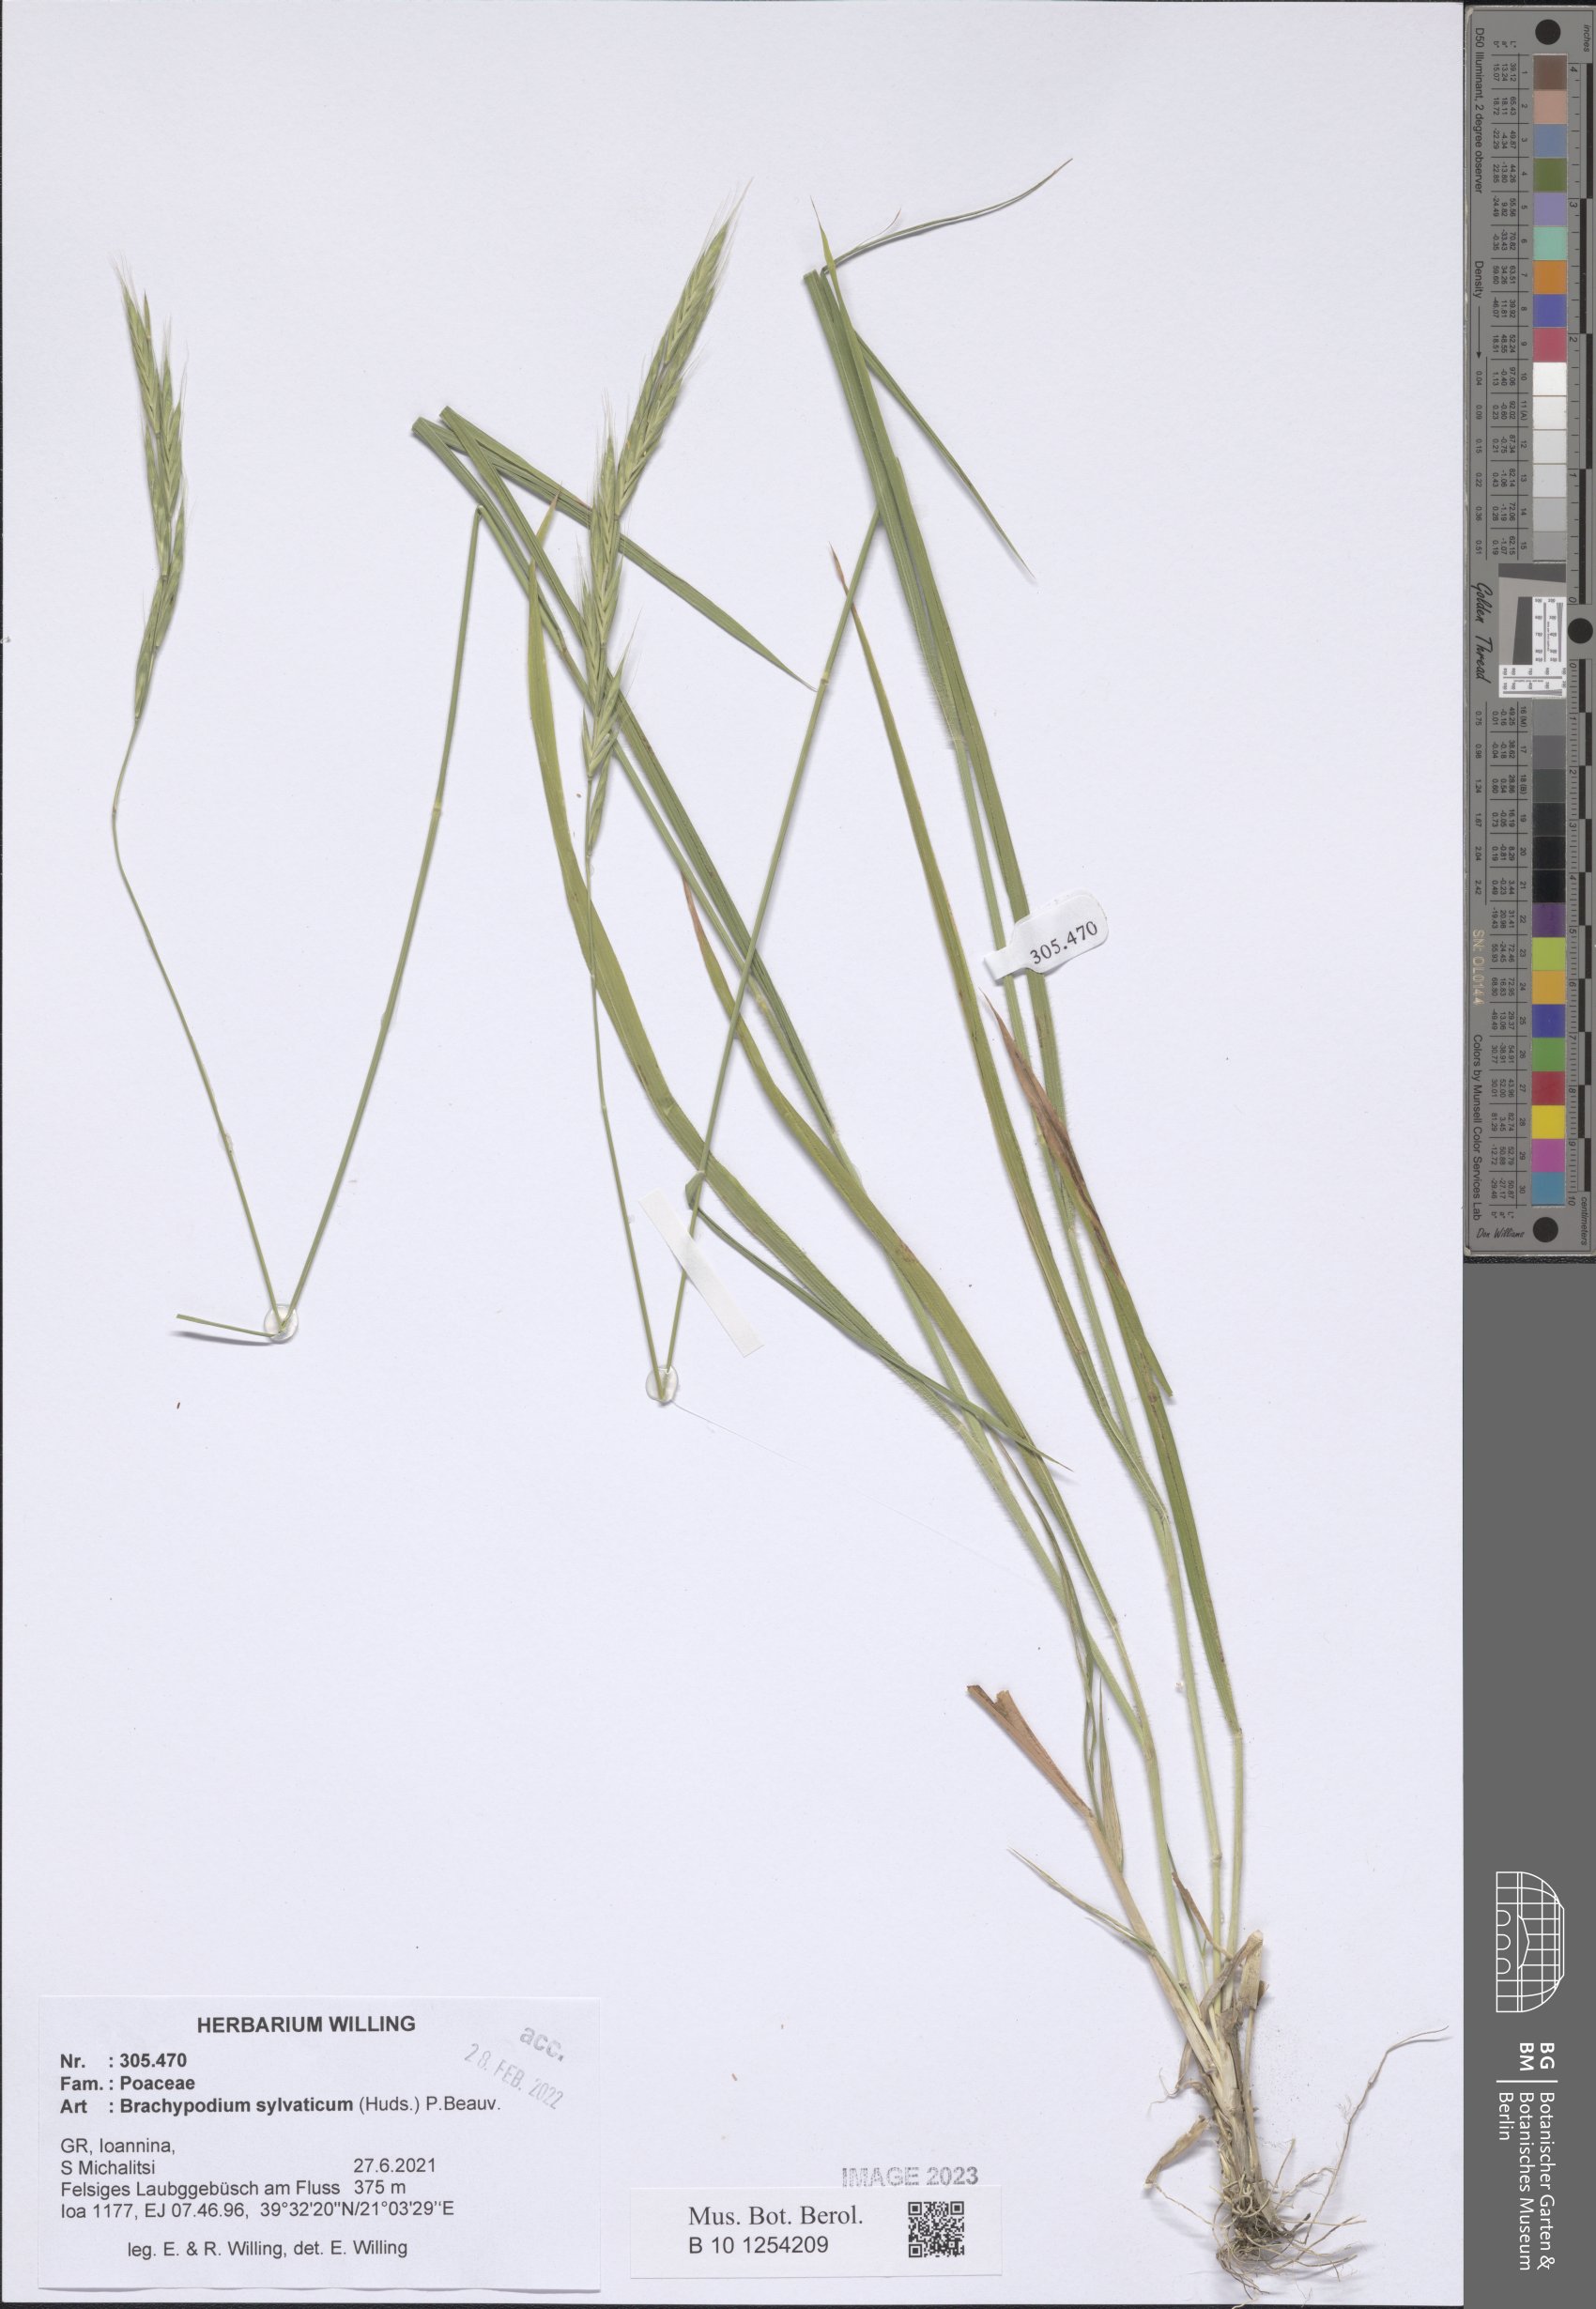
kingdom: Plantae
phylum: Tracheophyta
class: Liliopsida
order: Poales
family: Poaceae
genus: Brachypodium
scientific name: Brachypodium sylvaticum
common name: False-brome
